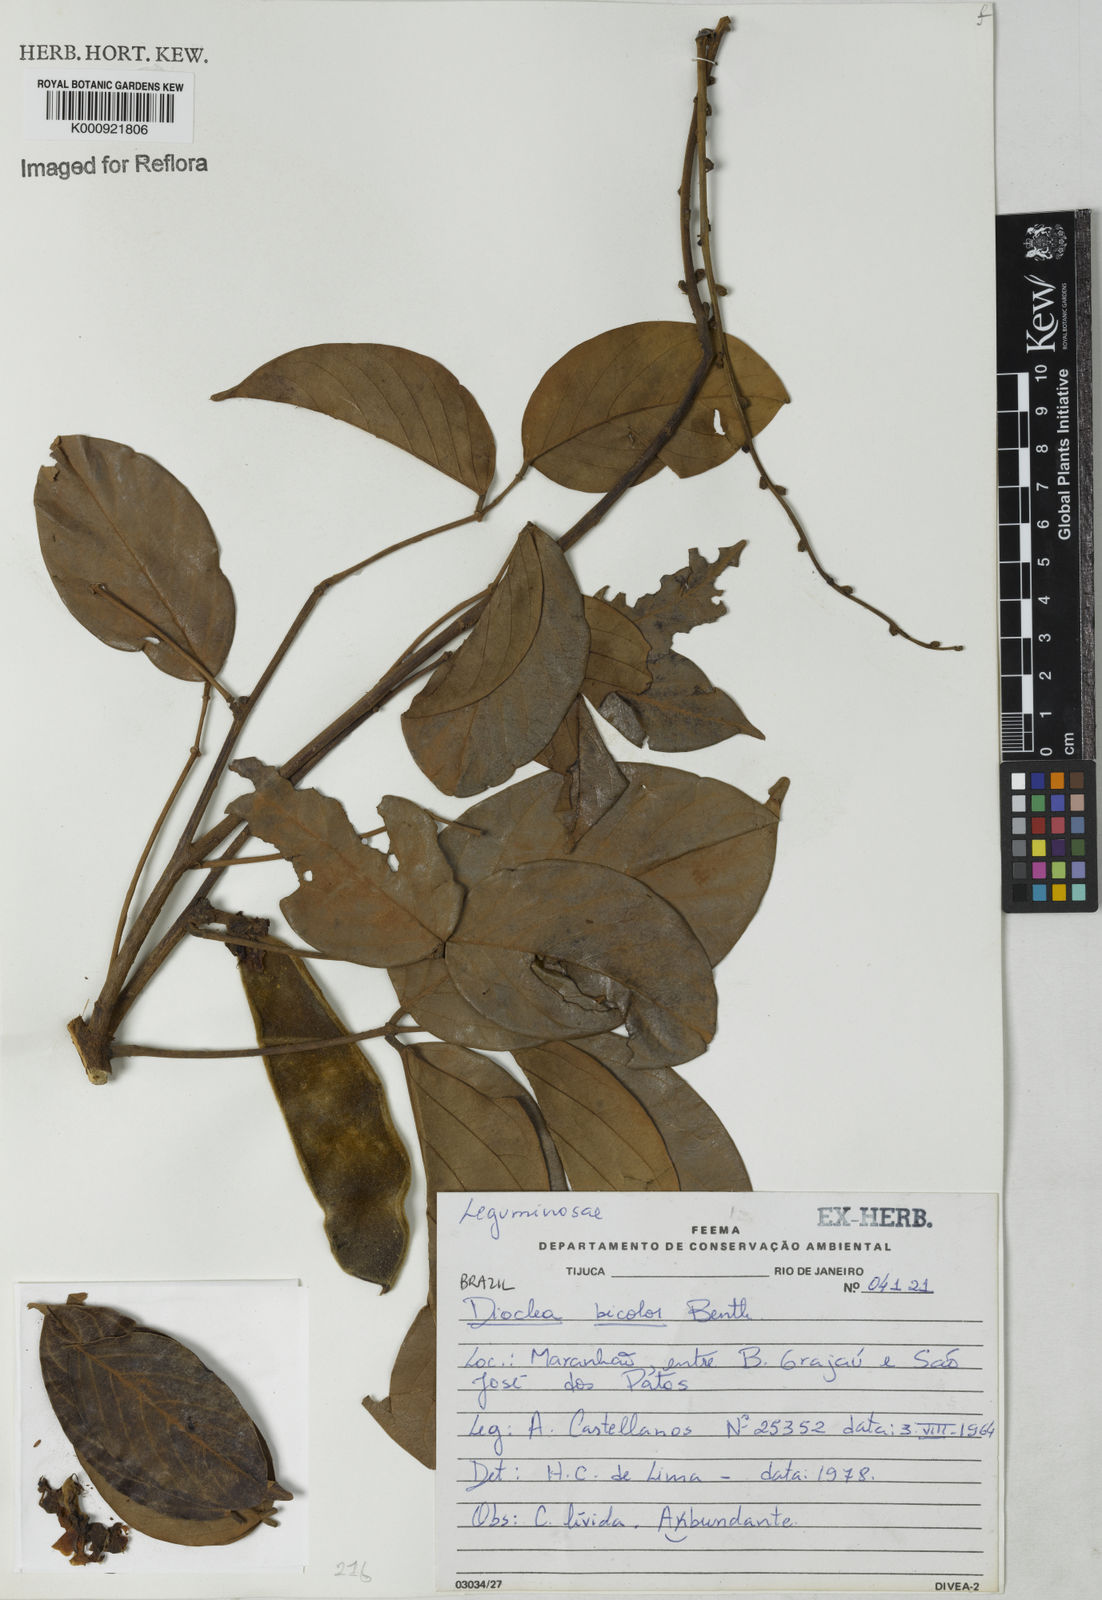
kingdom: Plantae
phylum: Tracheophyta
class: Magnoliopsida
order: Fabales
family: Fabaceae
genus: Macropsychanthus
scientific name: Macropsychanthus bicolor
